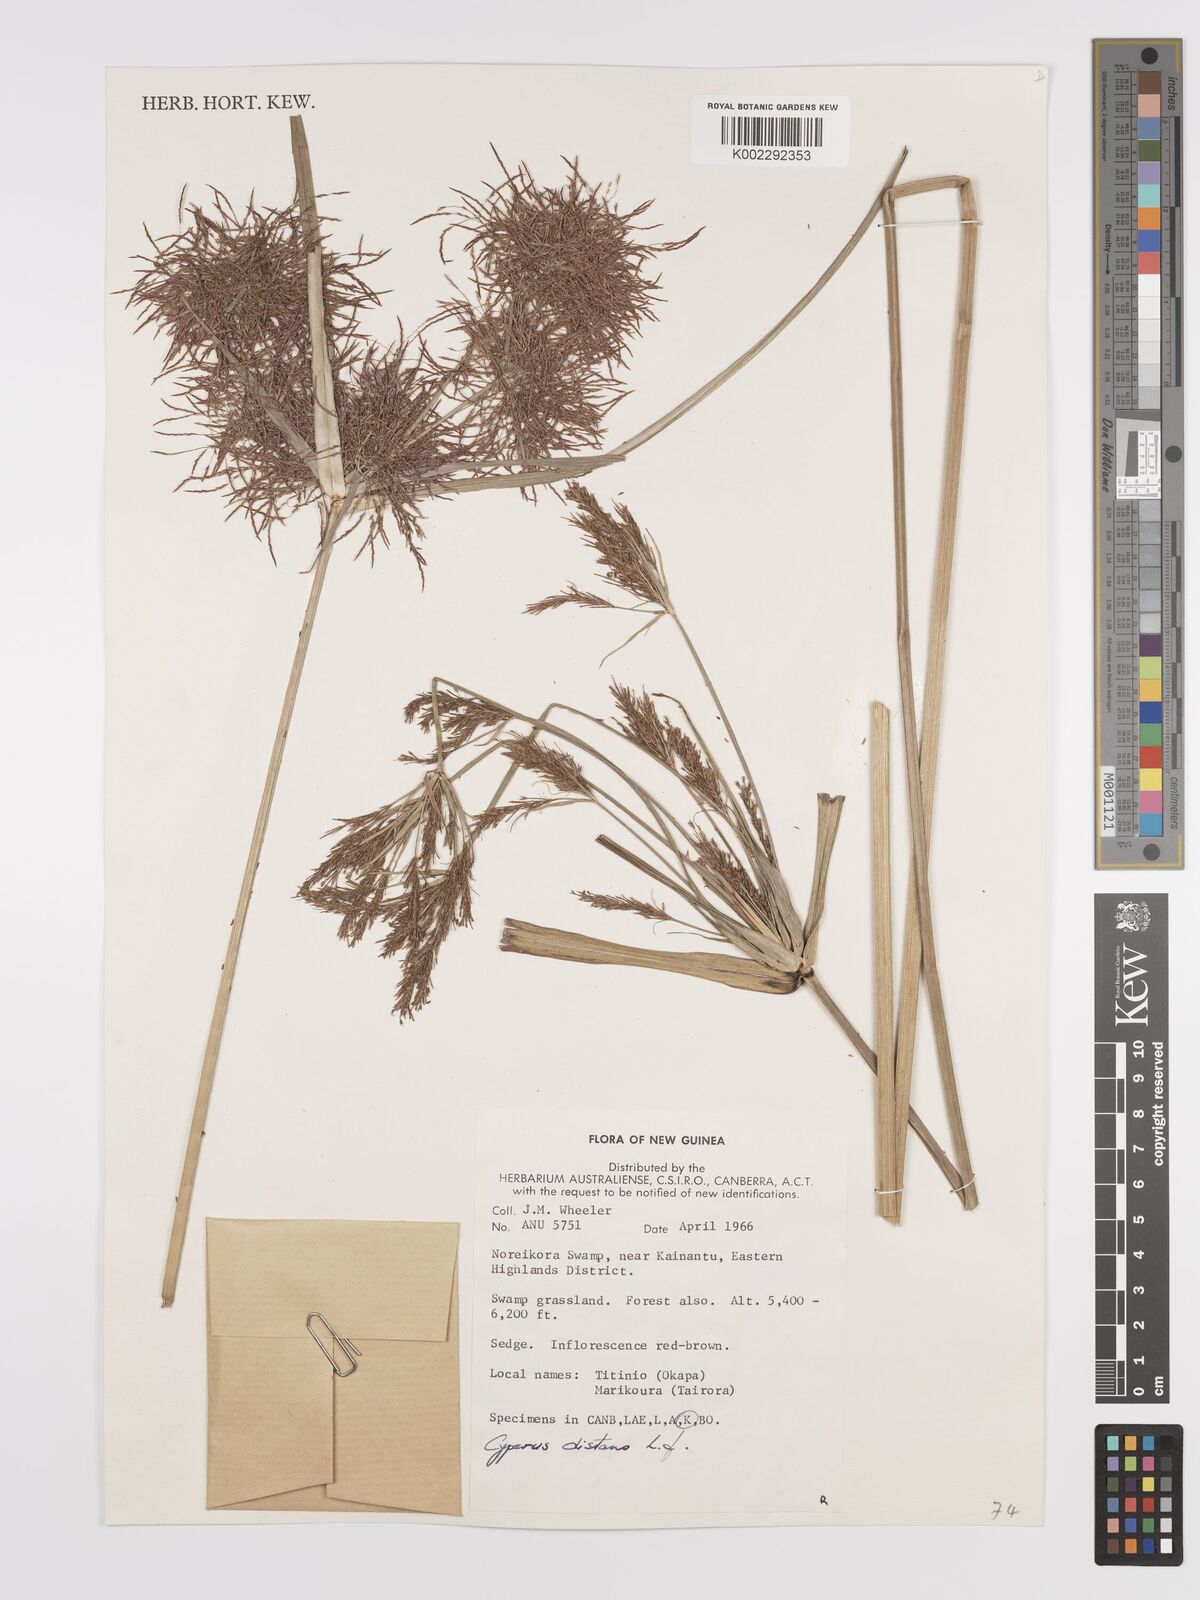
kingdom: Plantae
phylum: Tracheophyta
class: Liliopsida
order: Poales
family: Cyperaceae
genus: Cyperus
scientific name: Cyperus distans
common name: Slender cyperus
